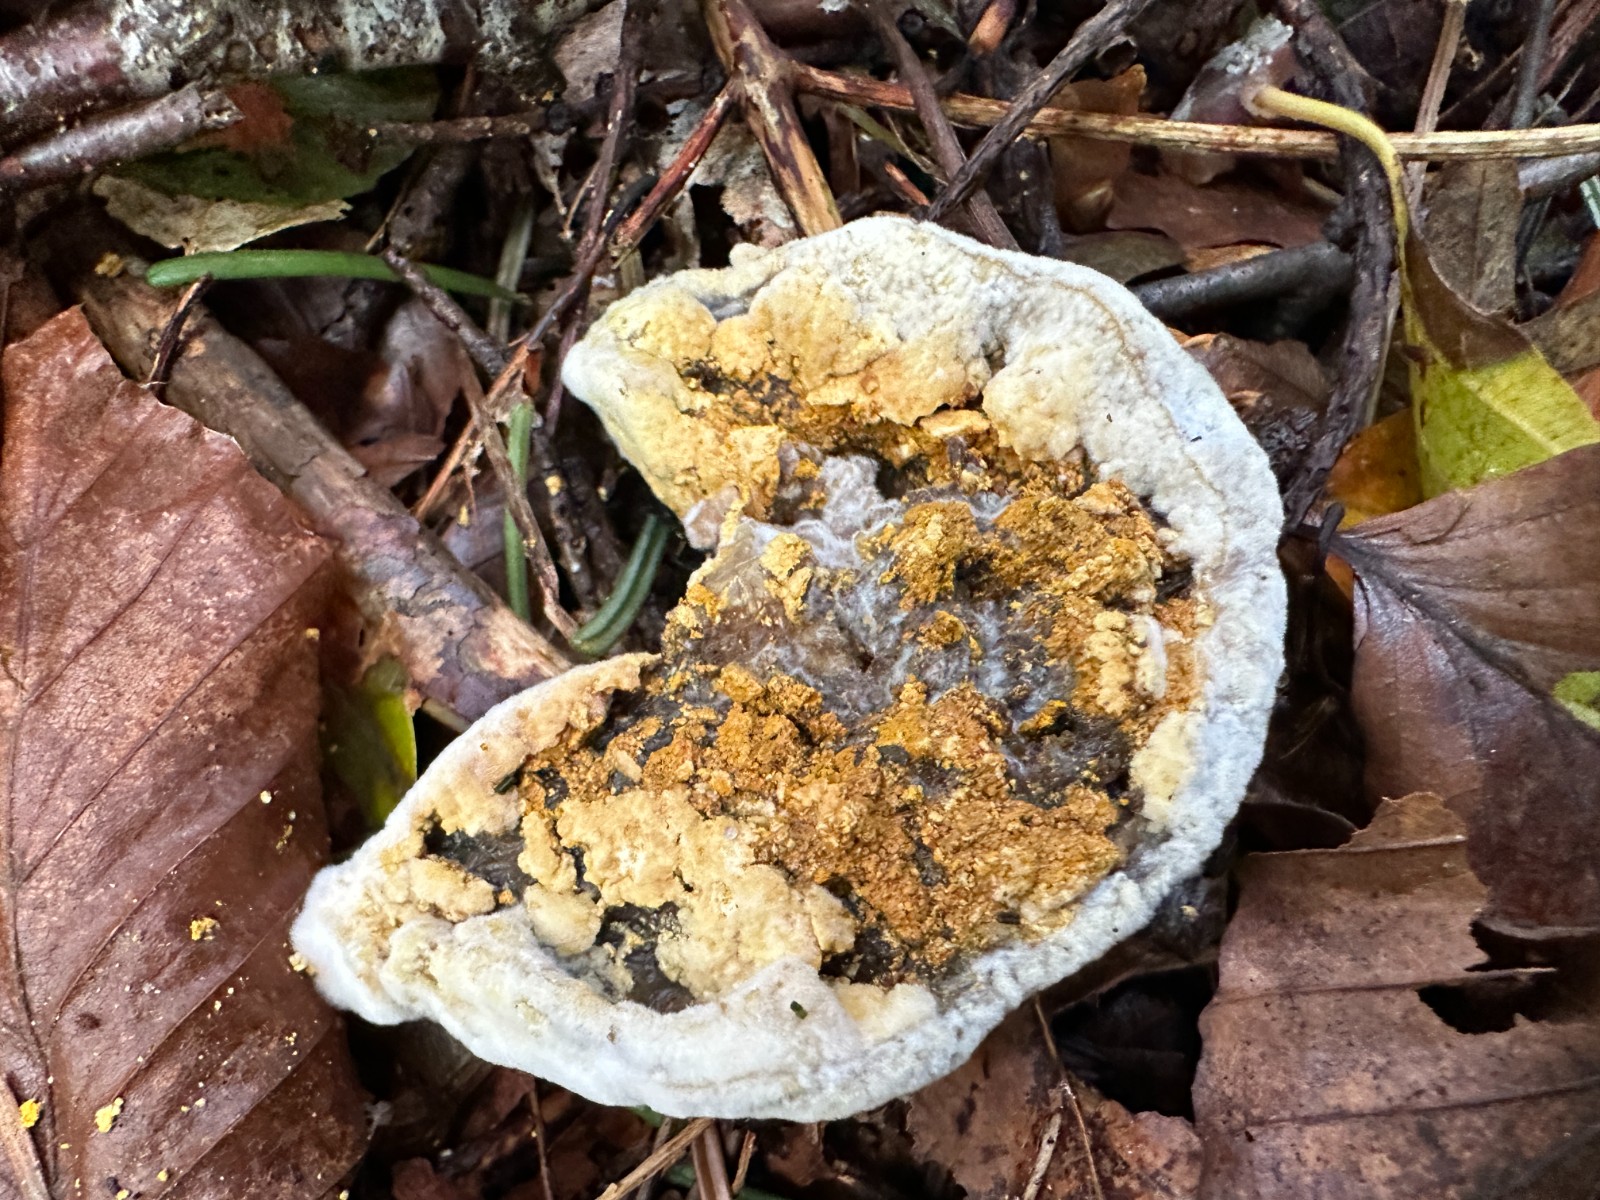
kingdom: Fungi
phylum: Ascomycota
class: Sordariomycetes
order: Hypocreales
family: Hypocreaceae
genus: Hypomyces
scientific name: Hypomyces
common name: snylteskorpe
